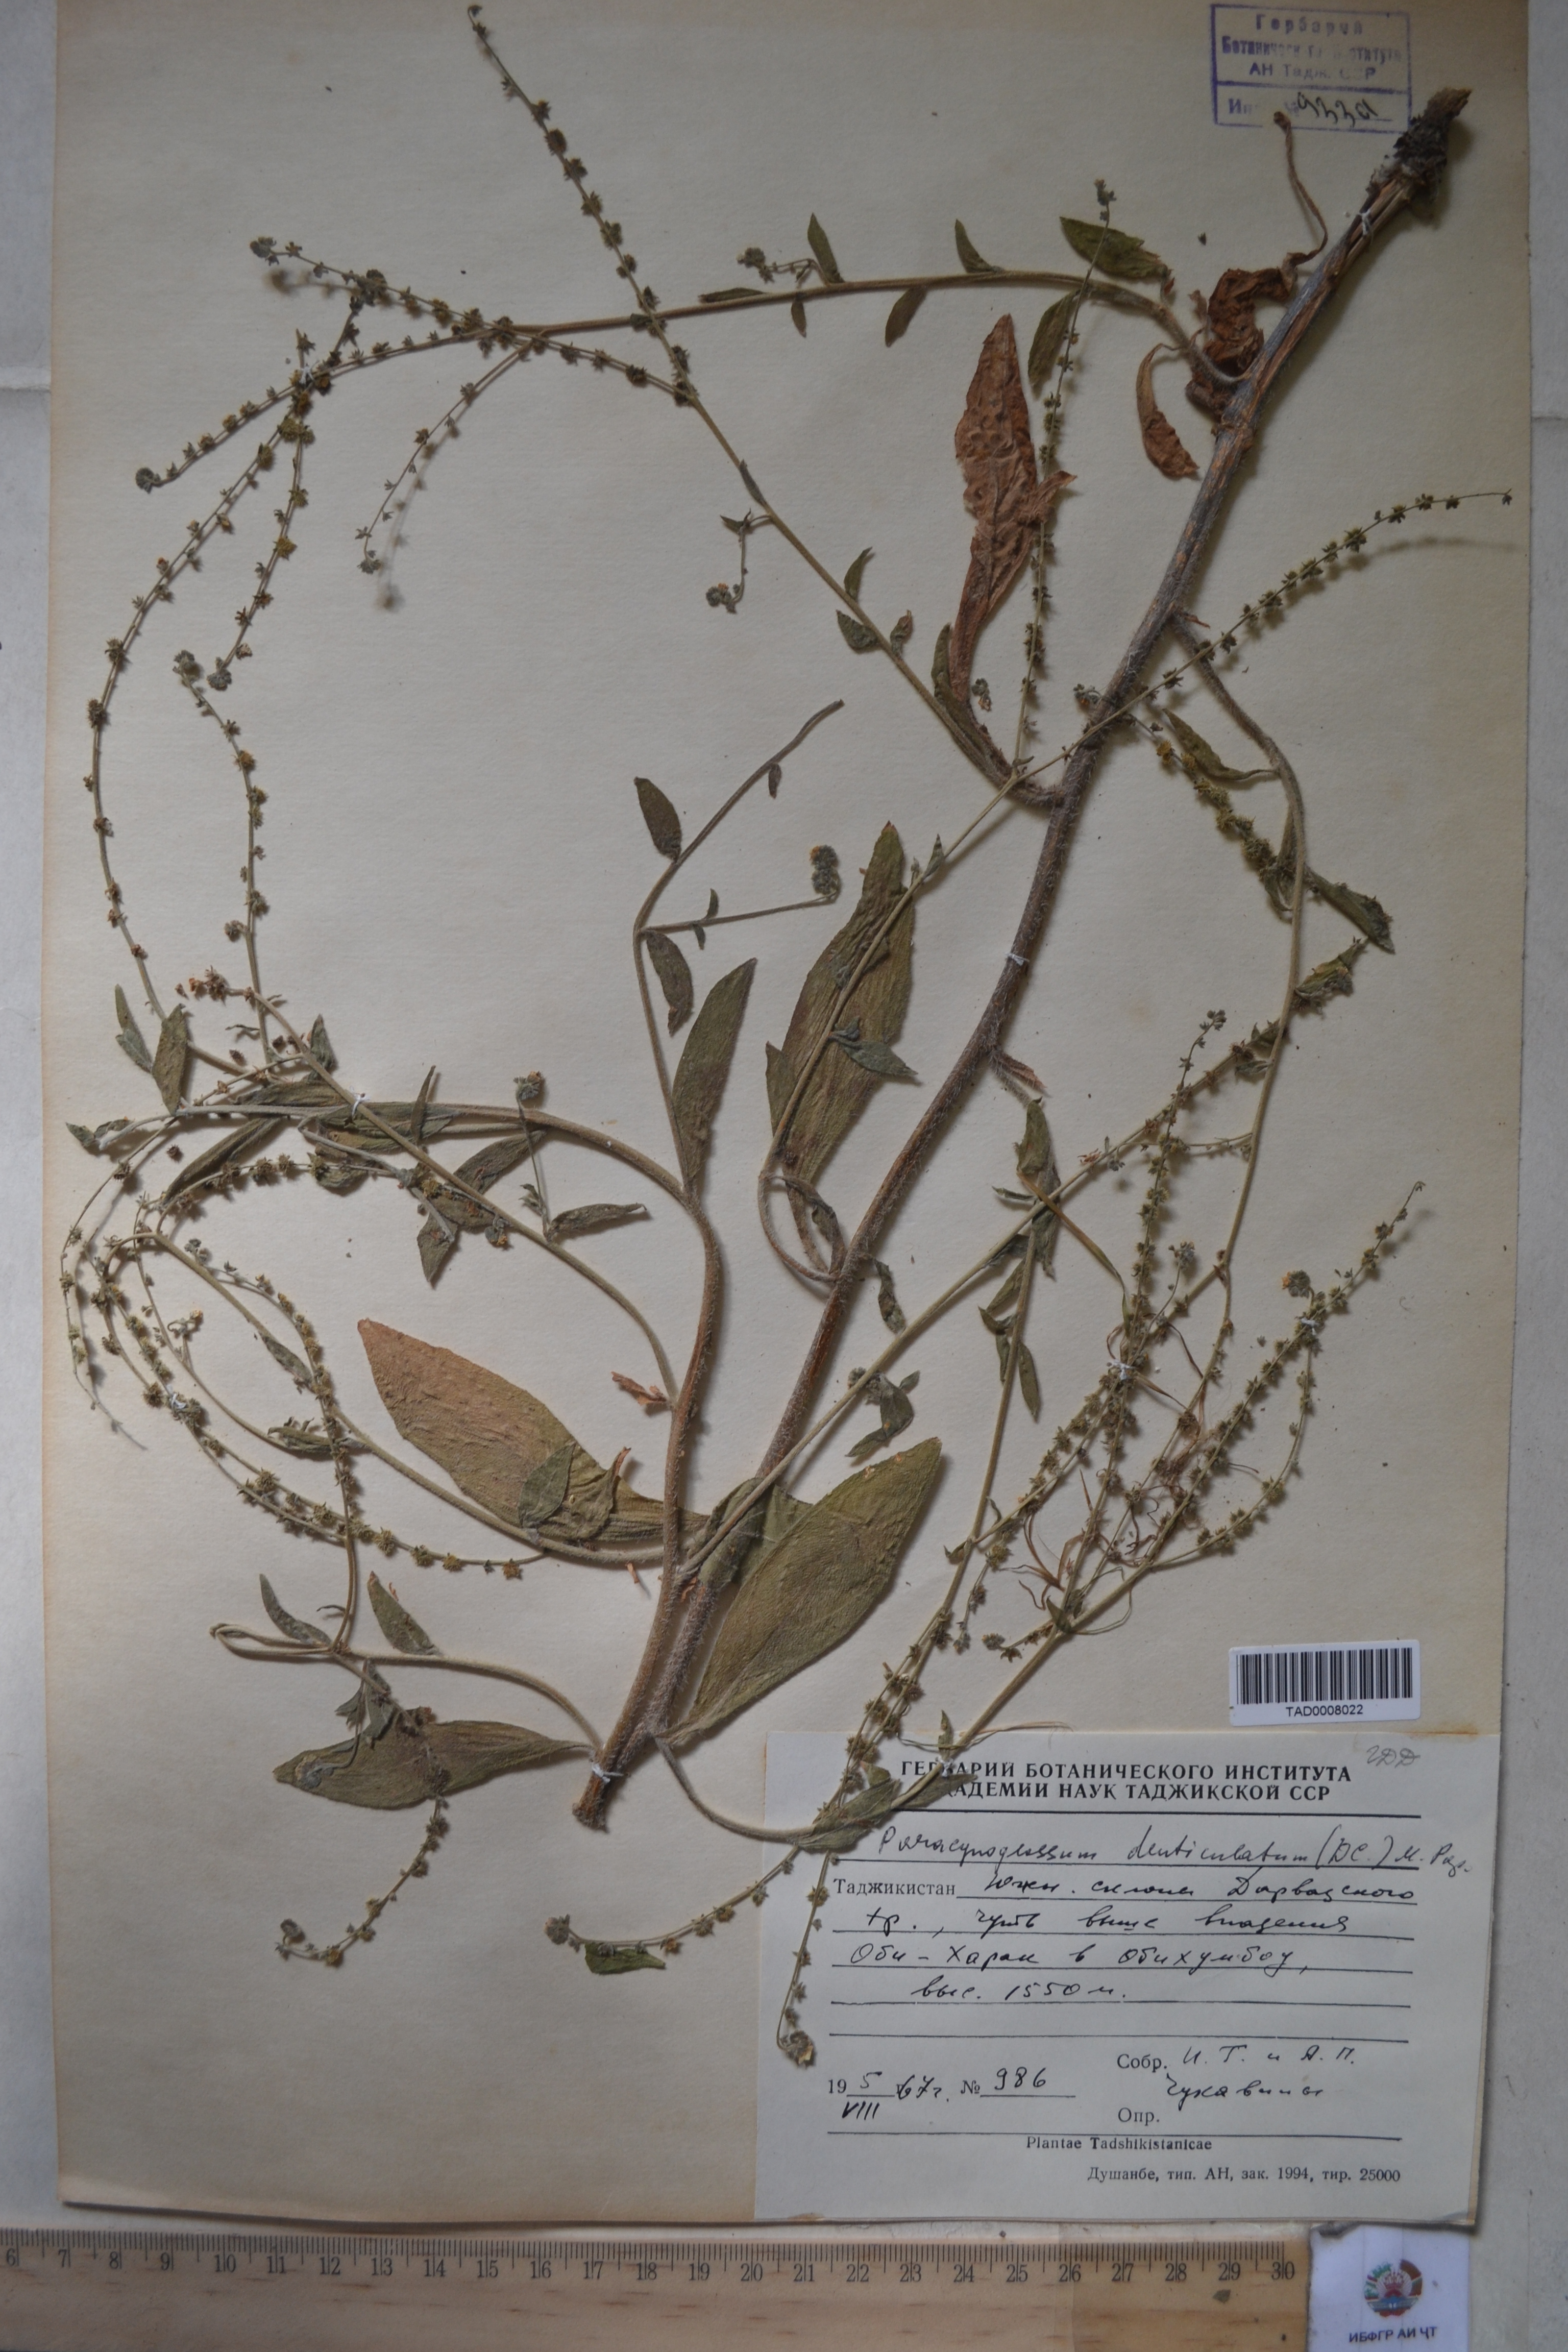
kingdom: Plantae
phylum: Tracheophyta
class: Magnoliopsida
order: Boraginales
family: Boraginaceae
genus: Paracynoglossum
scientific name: Paracynoglossum glochidiatum
